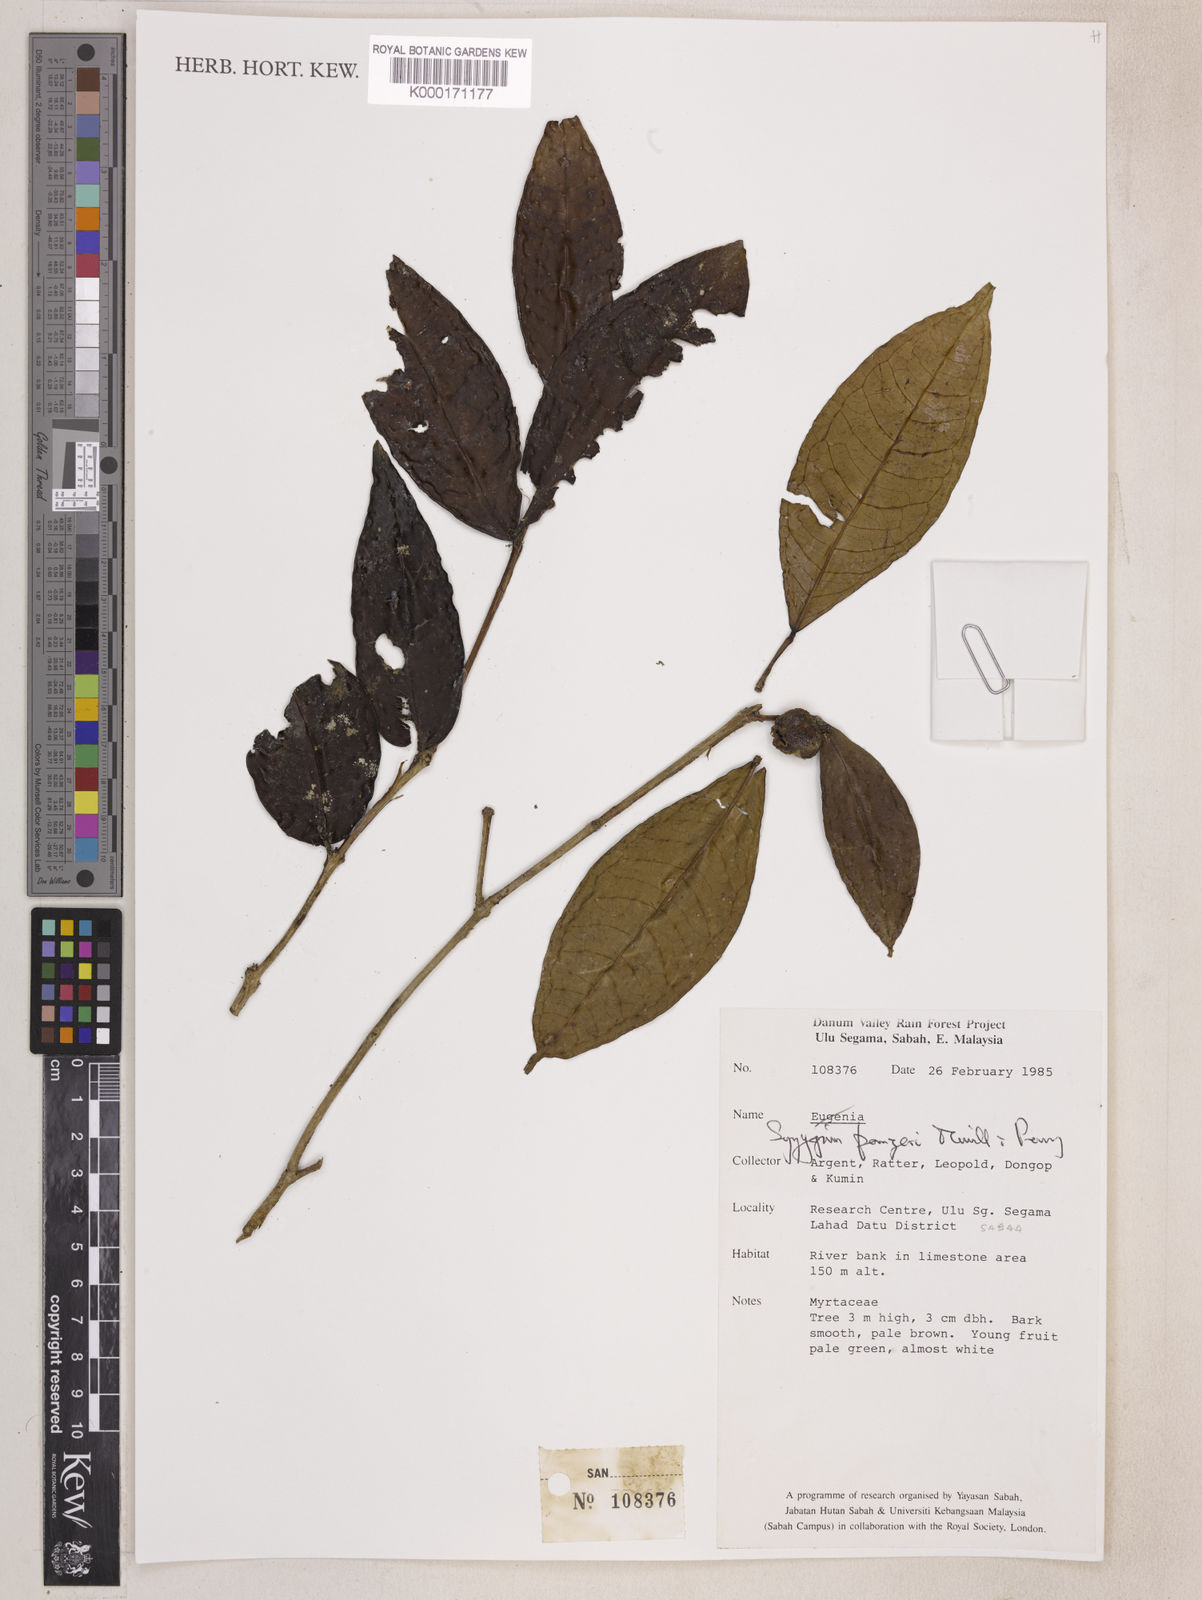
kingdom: Plantae
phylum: Tracheophyta
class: Magnoliopsida
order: Myrtales
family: Myrtaceae
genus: Syzygium
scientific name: Syzygium panzeri
